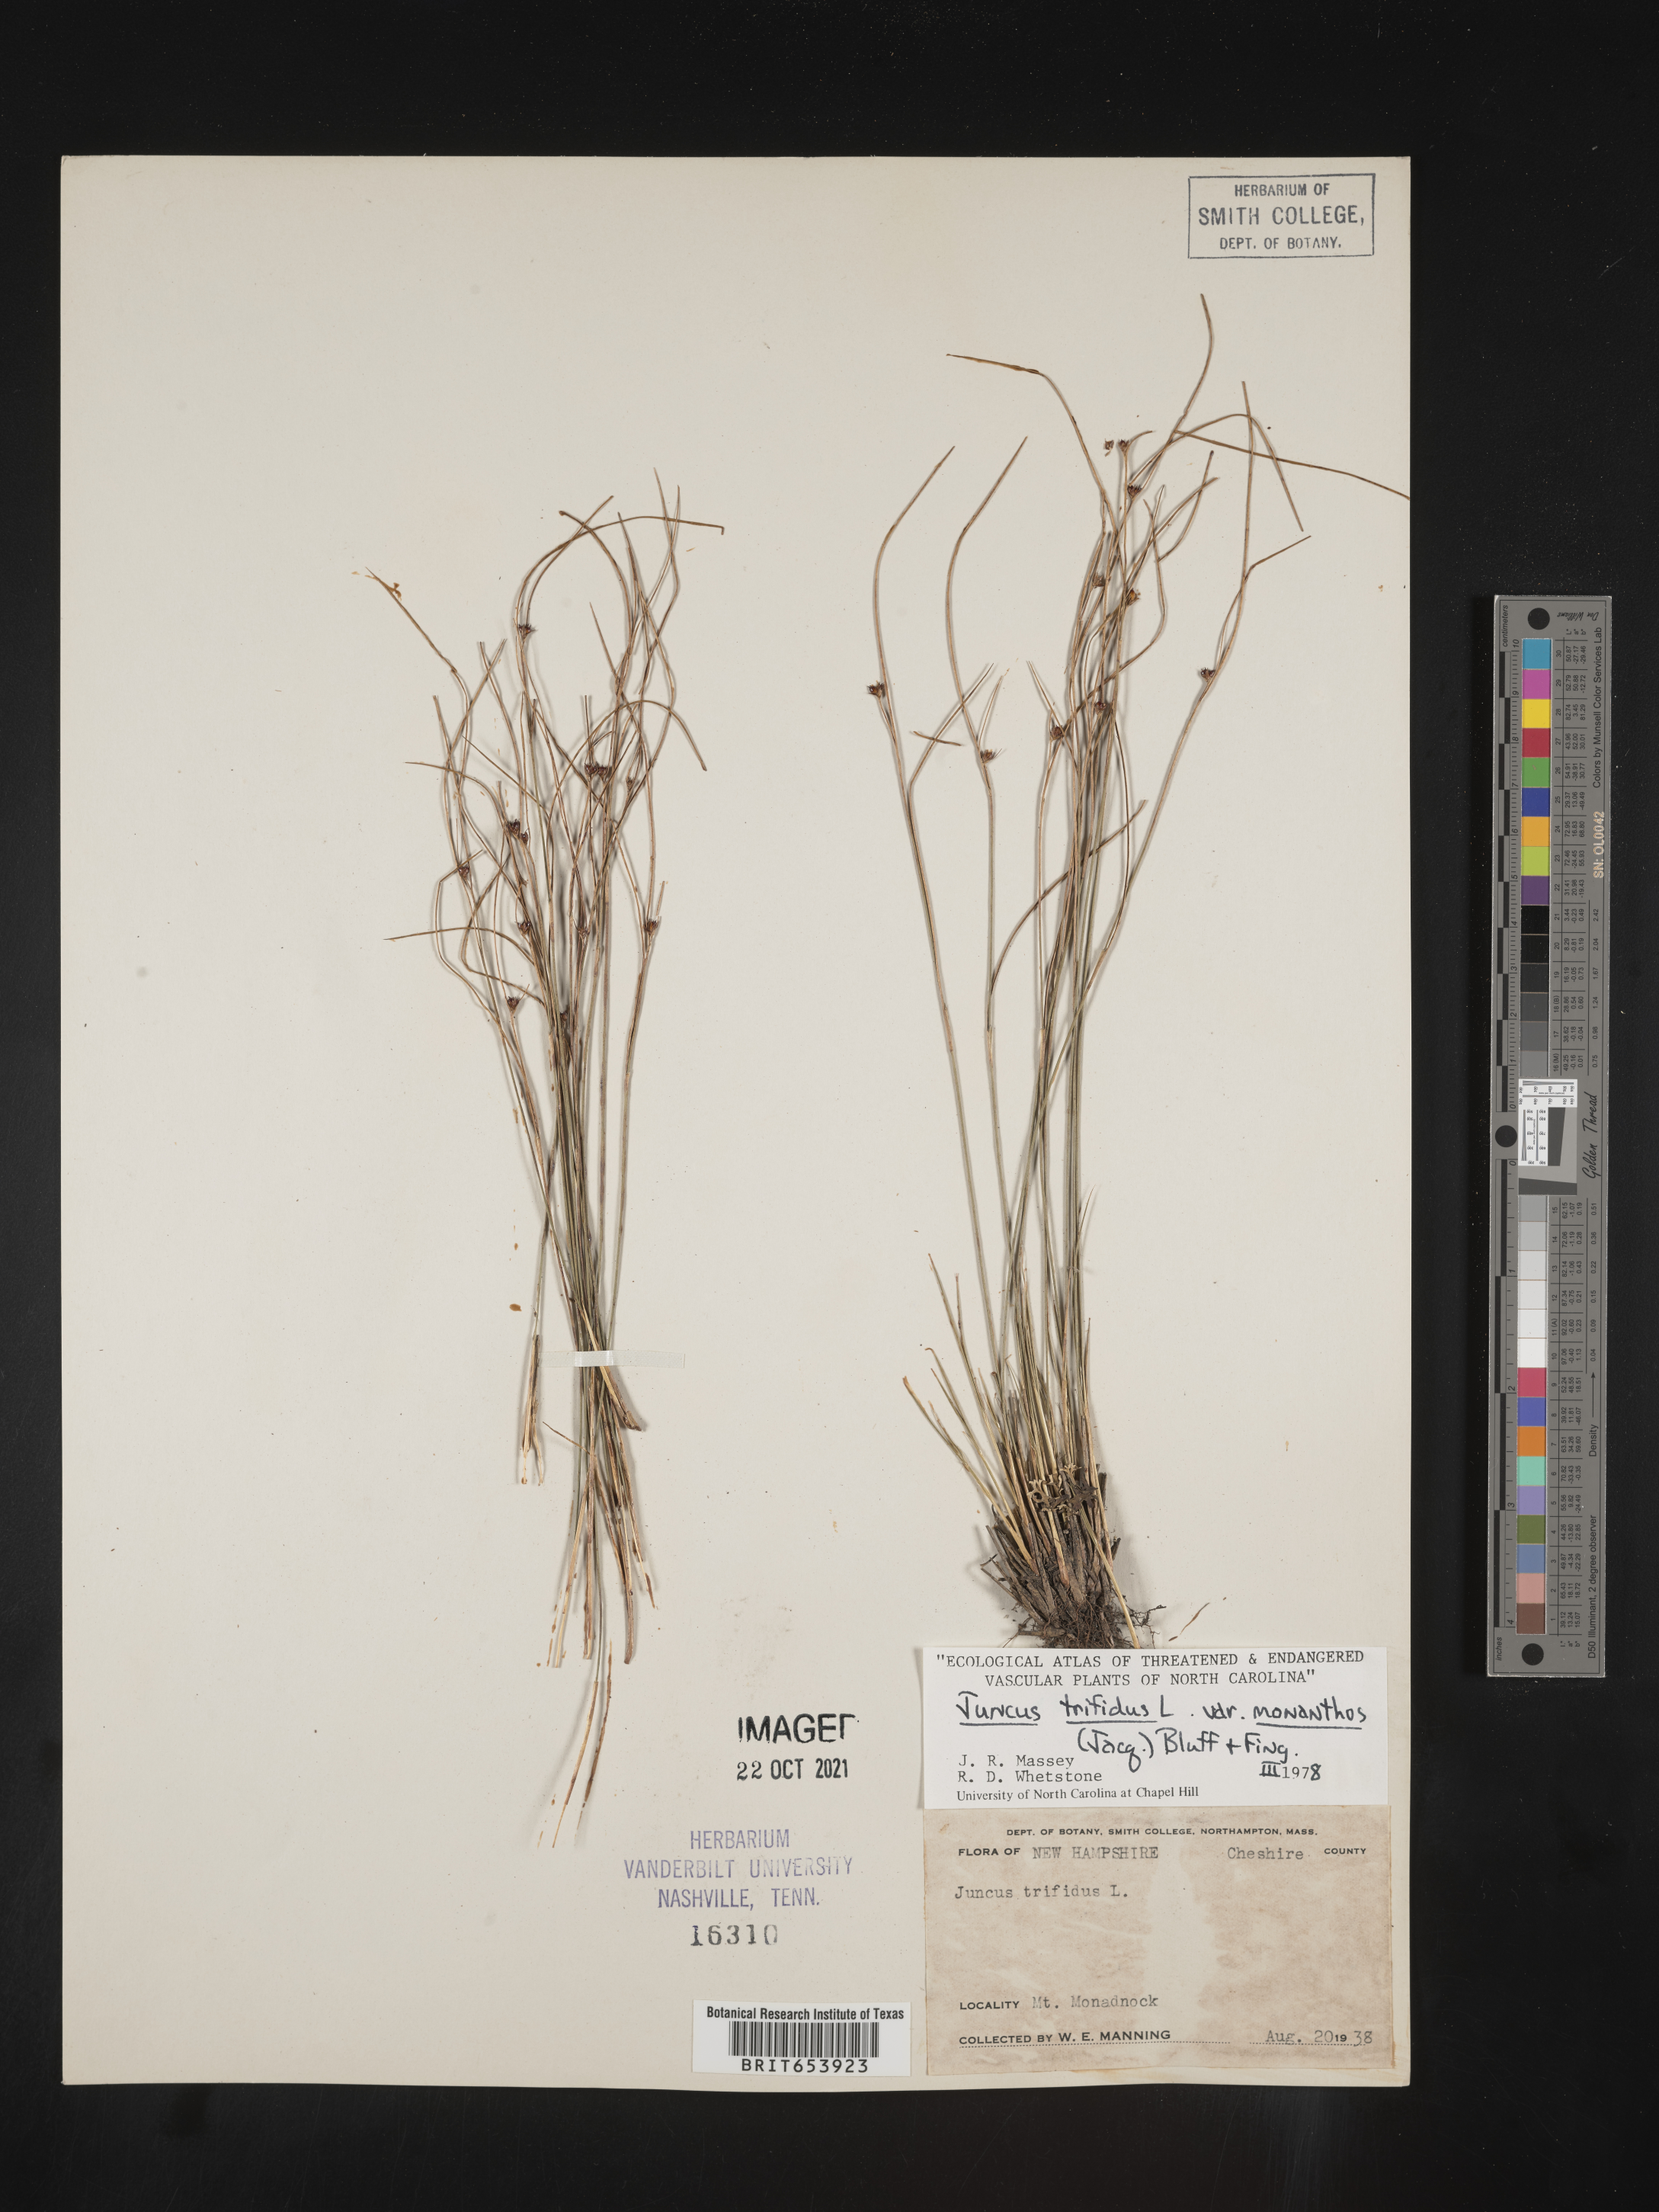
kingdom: Plantae
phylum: Tracheophyta
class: Liliopsida
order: Poales
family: Juncaceae
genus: Oreojuncus
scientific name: Oreojuncus trifidus
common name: Highland rush
